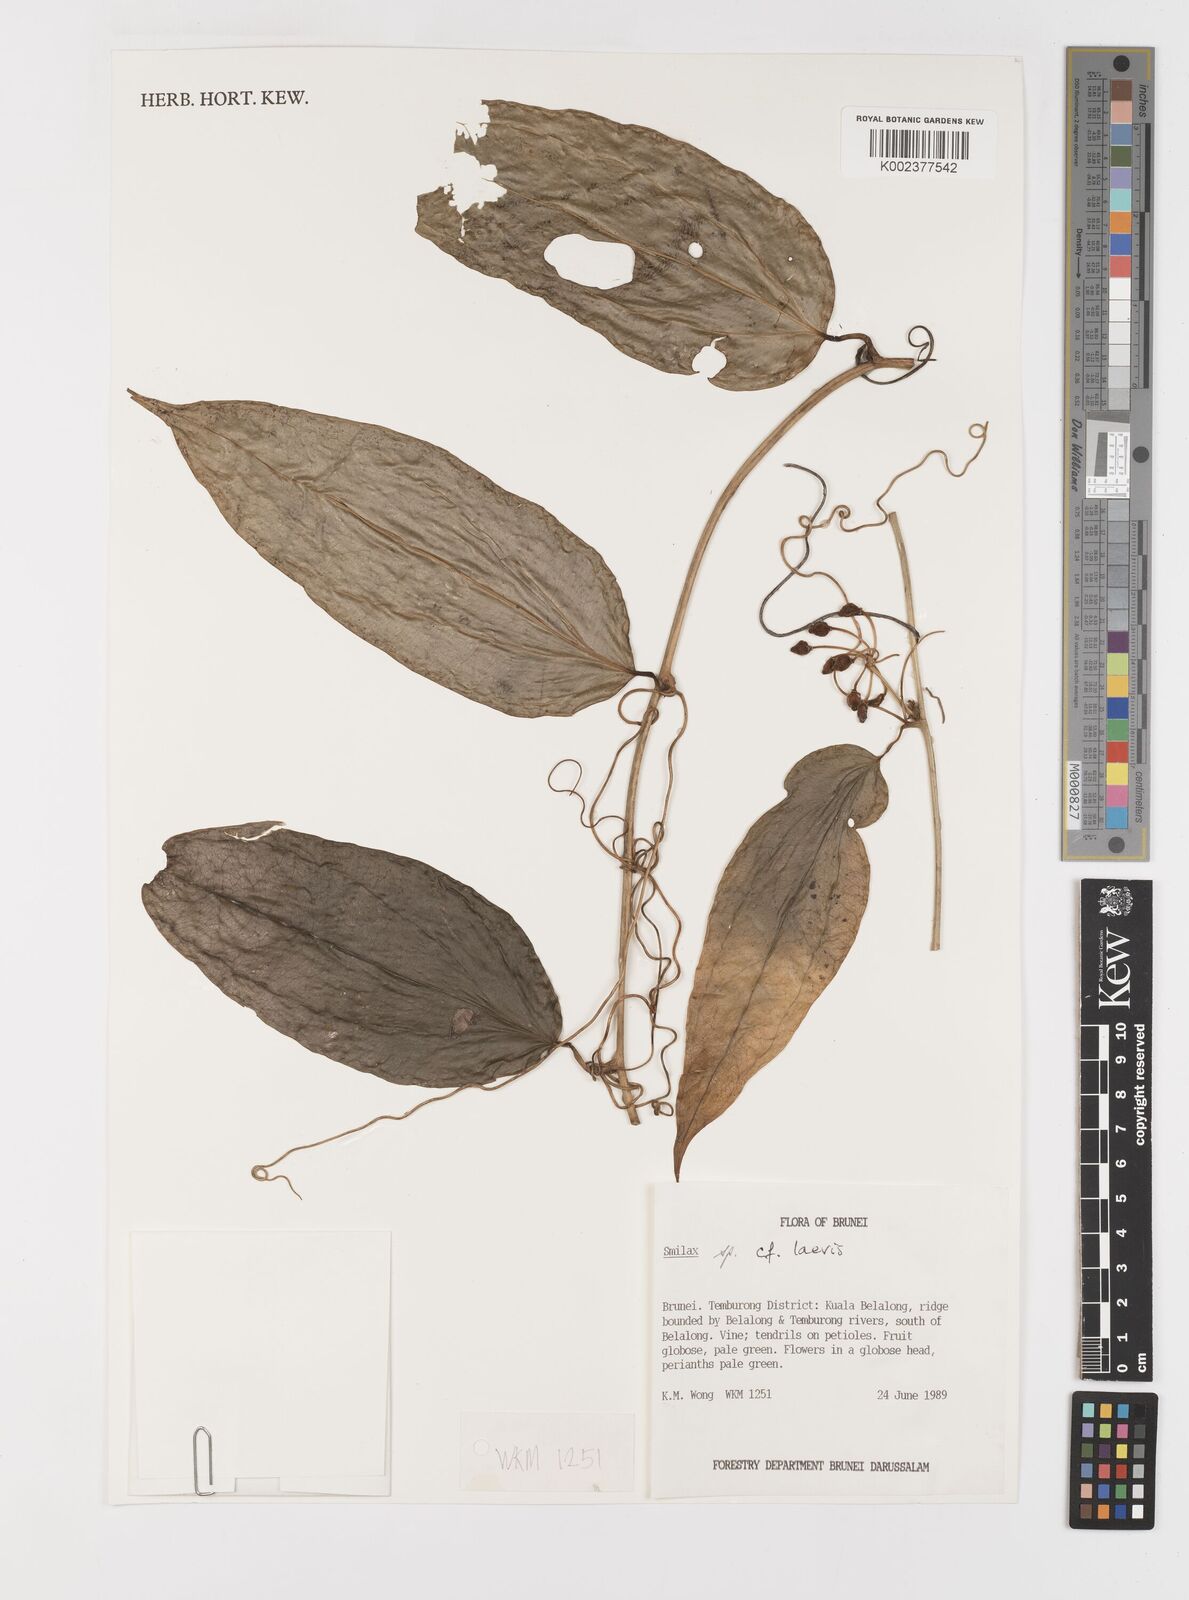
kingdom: Plantae
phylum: Tracheophyta
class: Liliopsida
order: Liliales
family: Smilacaceae
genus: Smilax
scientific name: Smilax laevis
